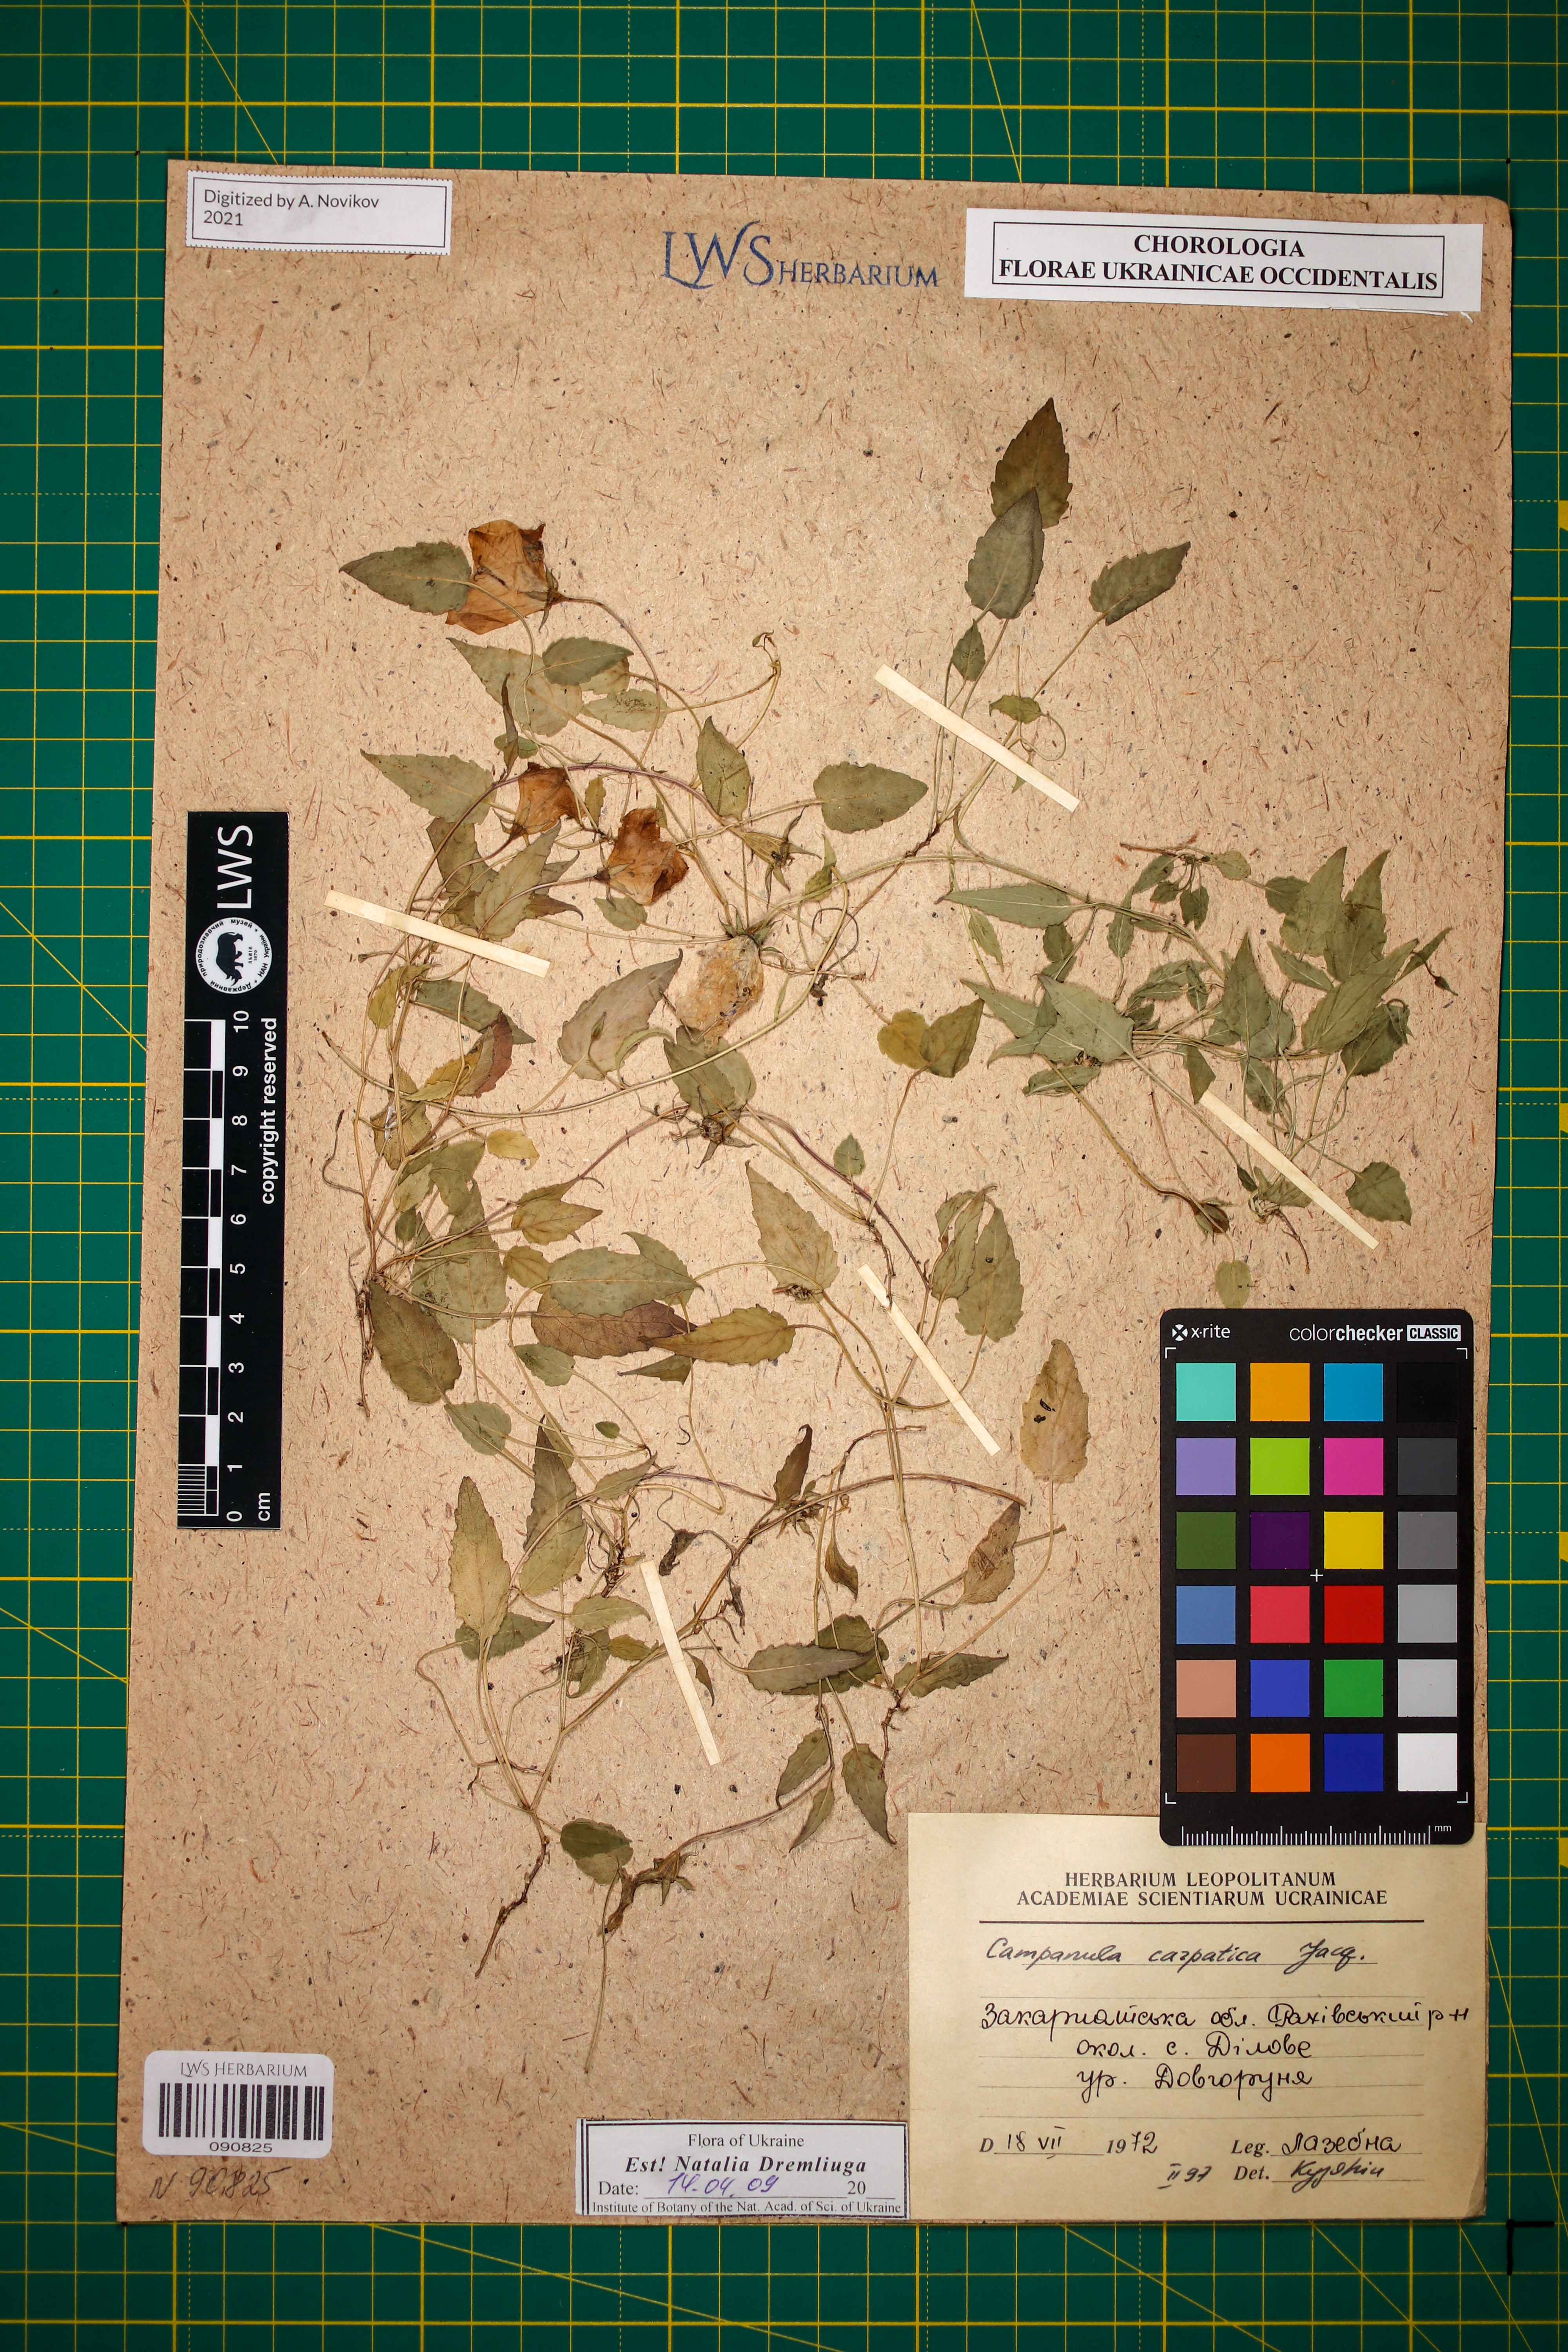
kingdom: Plantae
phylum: Tracheophyta
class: Magnoliopsida
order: Asterales
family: Campanulaceae
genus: Campanula
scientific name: Campanula carpatica
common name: Tussock bellflower
